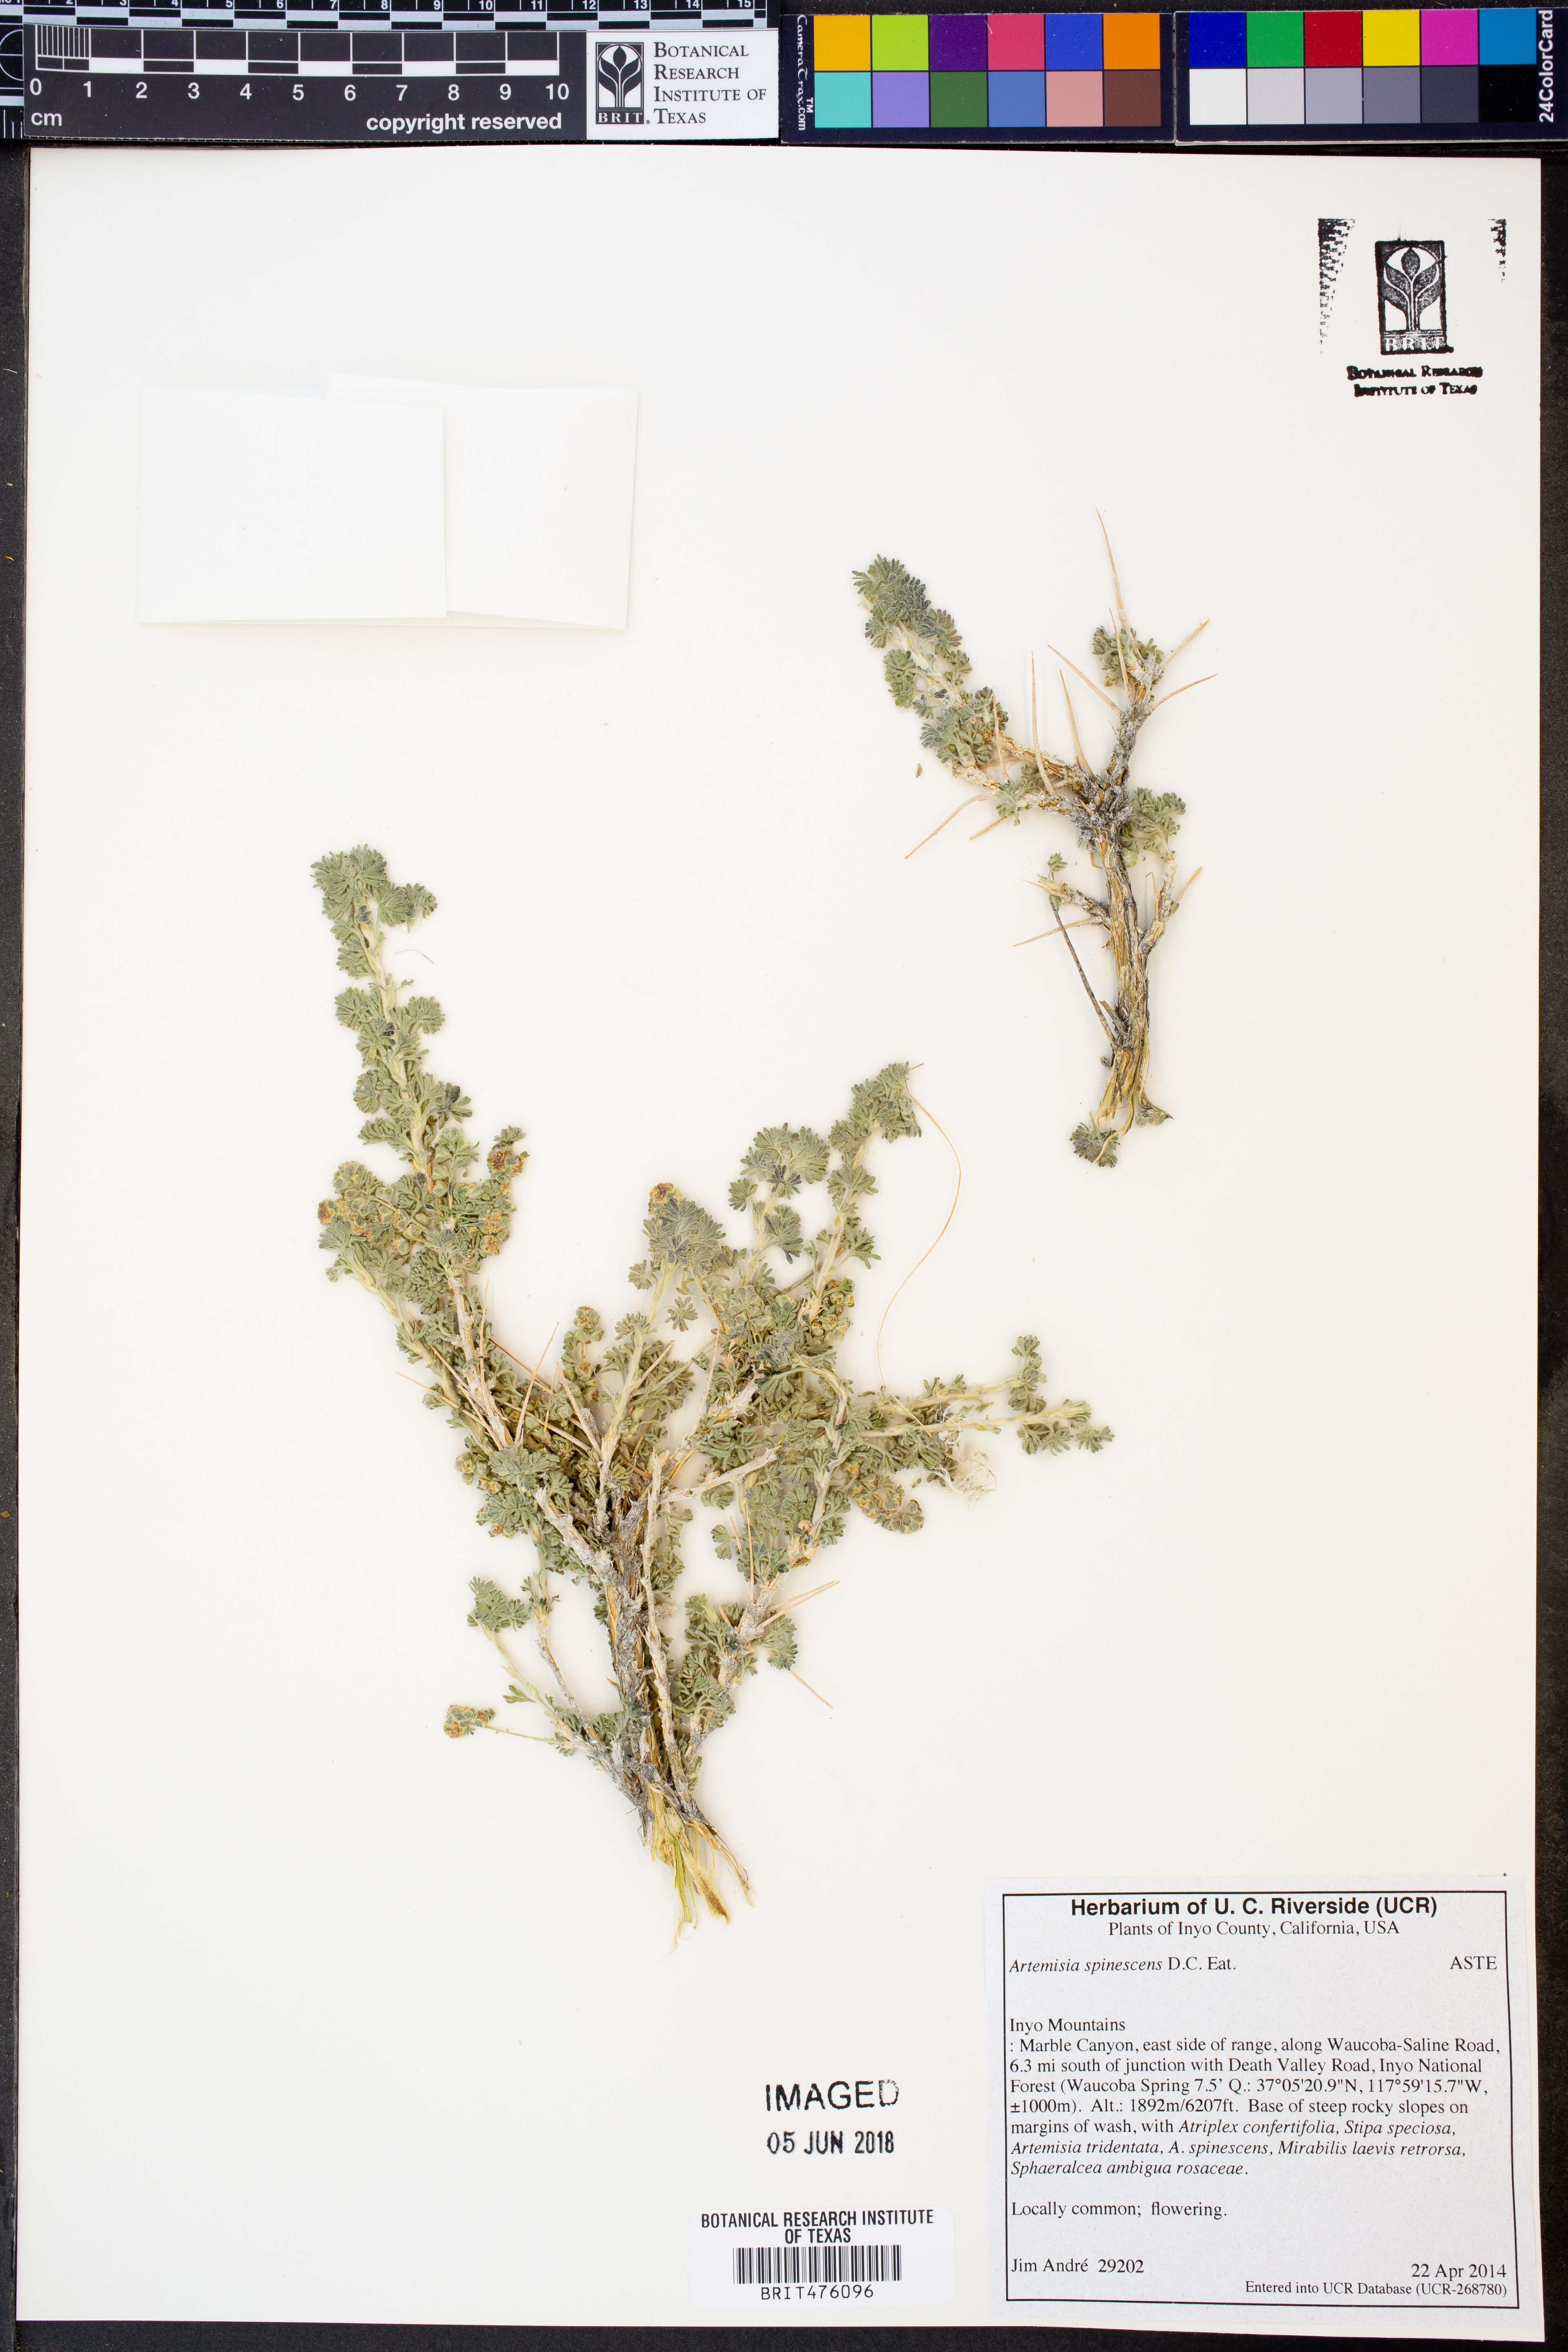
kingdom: Plantae
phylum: Tracheophyta
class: Magnoliopsida
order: Asterales
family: Asteraceae
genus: Artemisia
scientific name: Artemisia spinescens
